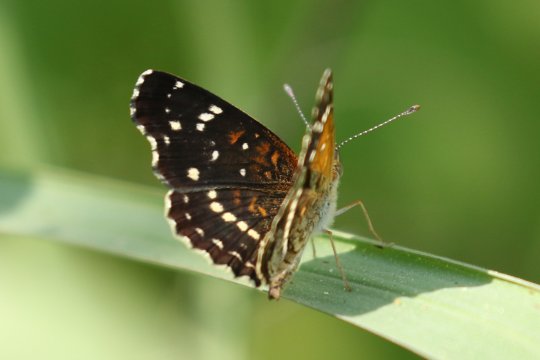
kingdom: Animalia
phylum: Arthropoda
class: Insecta
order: Lepidoptera
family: Nymphalidae
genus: Anthanassa
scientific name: Anthanassa texana
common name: Texan Crescent
